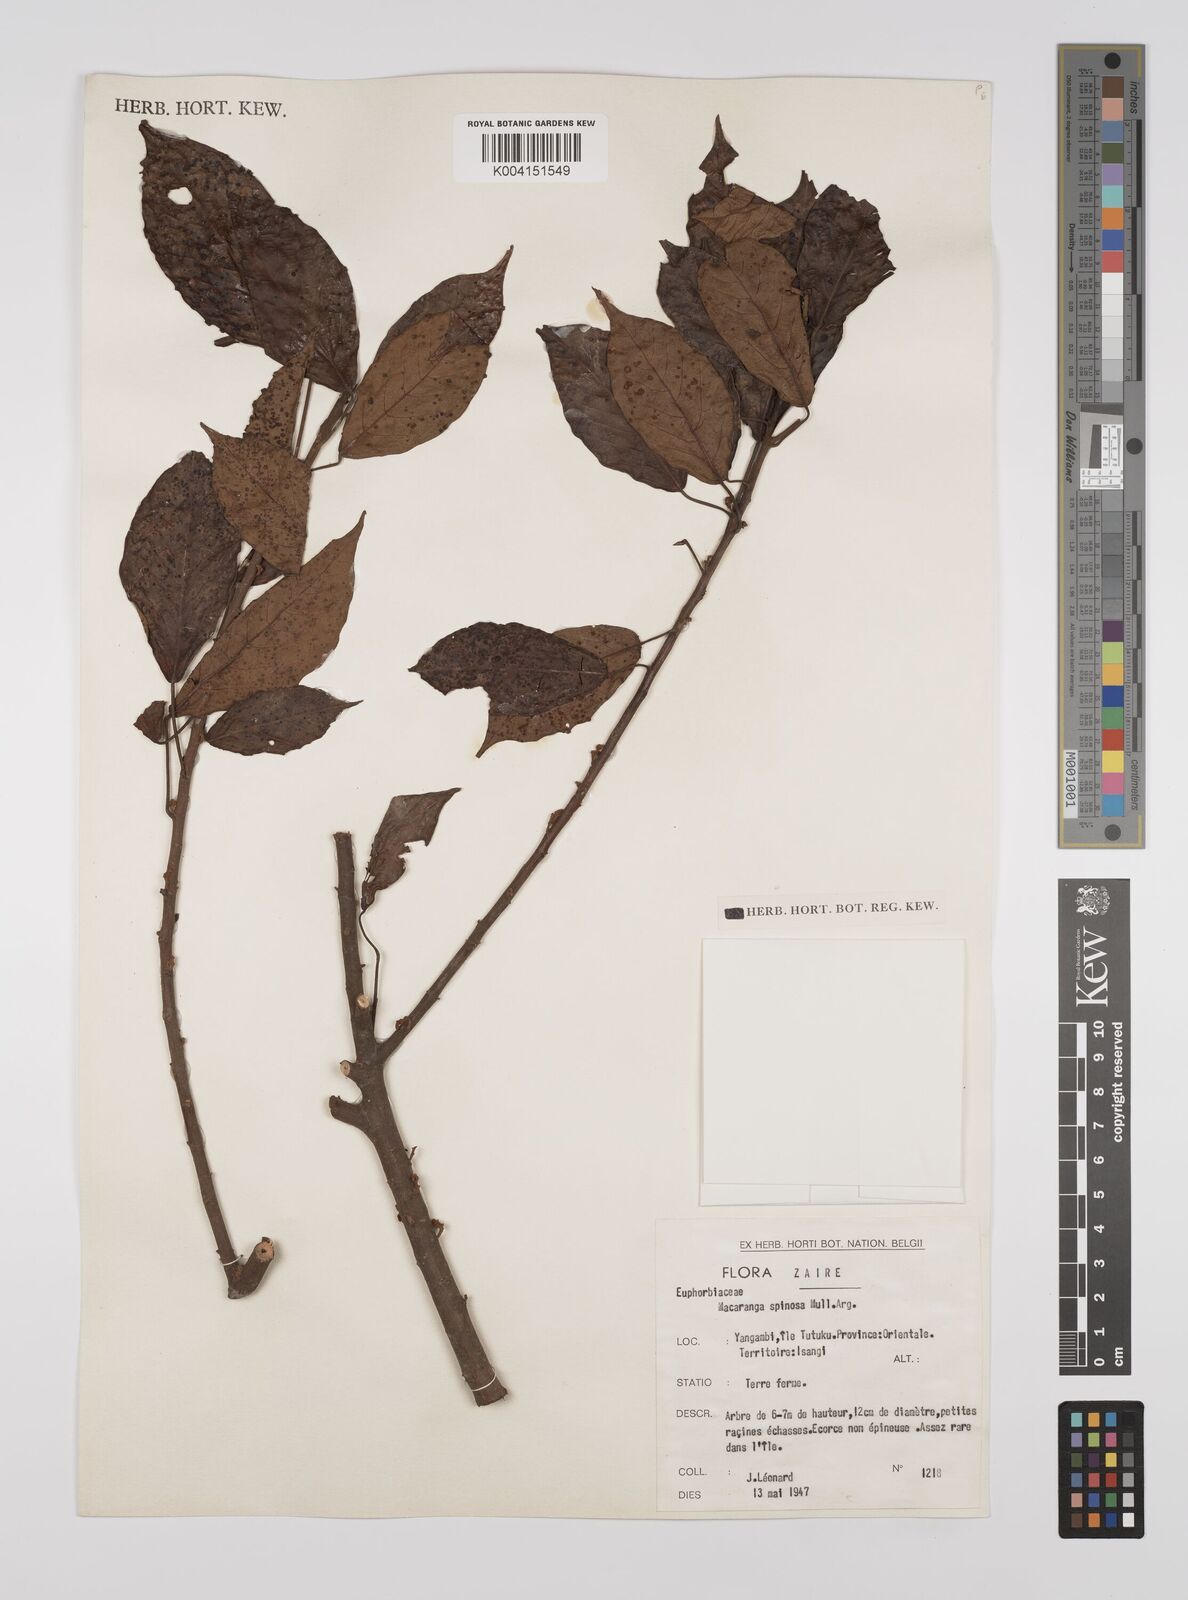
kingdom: Plantae
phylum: Tracheophyta
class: Magnoliopsida
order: Malpighiales
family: Euphorbiaceae
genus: Macaranga
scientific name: Macaranga spinosa
